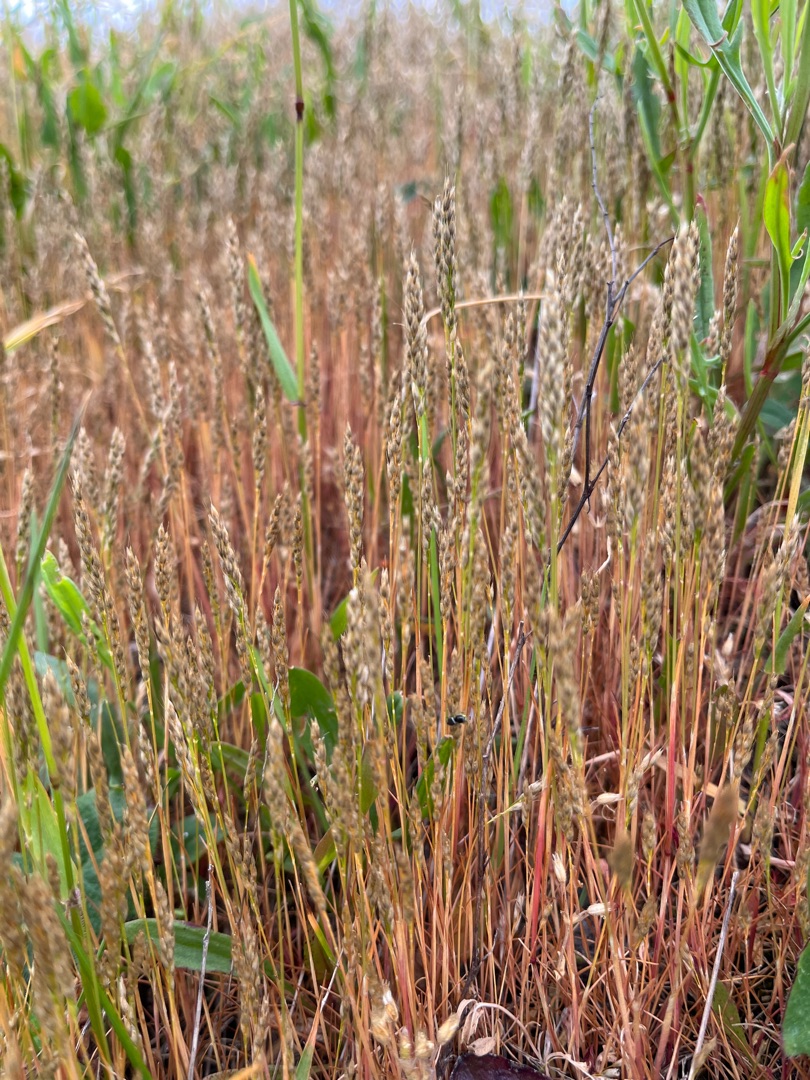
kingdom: Plantae
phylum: Tracheophyta
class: Liliopsida
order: Poales
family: Poaceae
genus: Aira
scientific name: Aira praecox
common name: Tidlig dværgbunke
